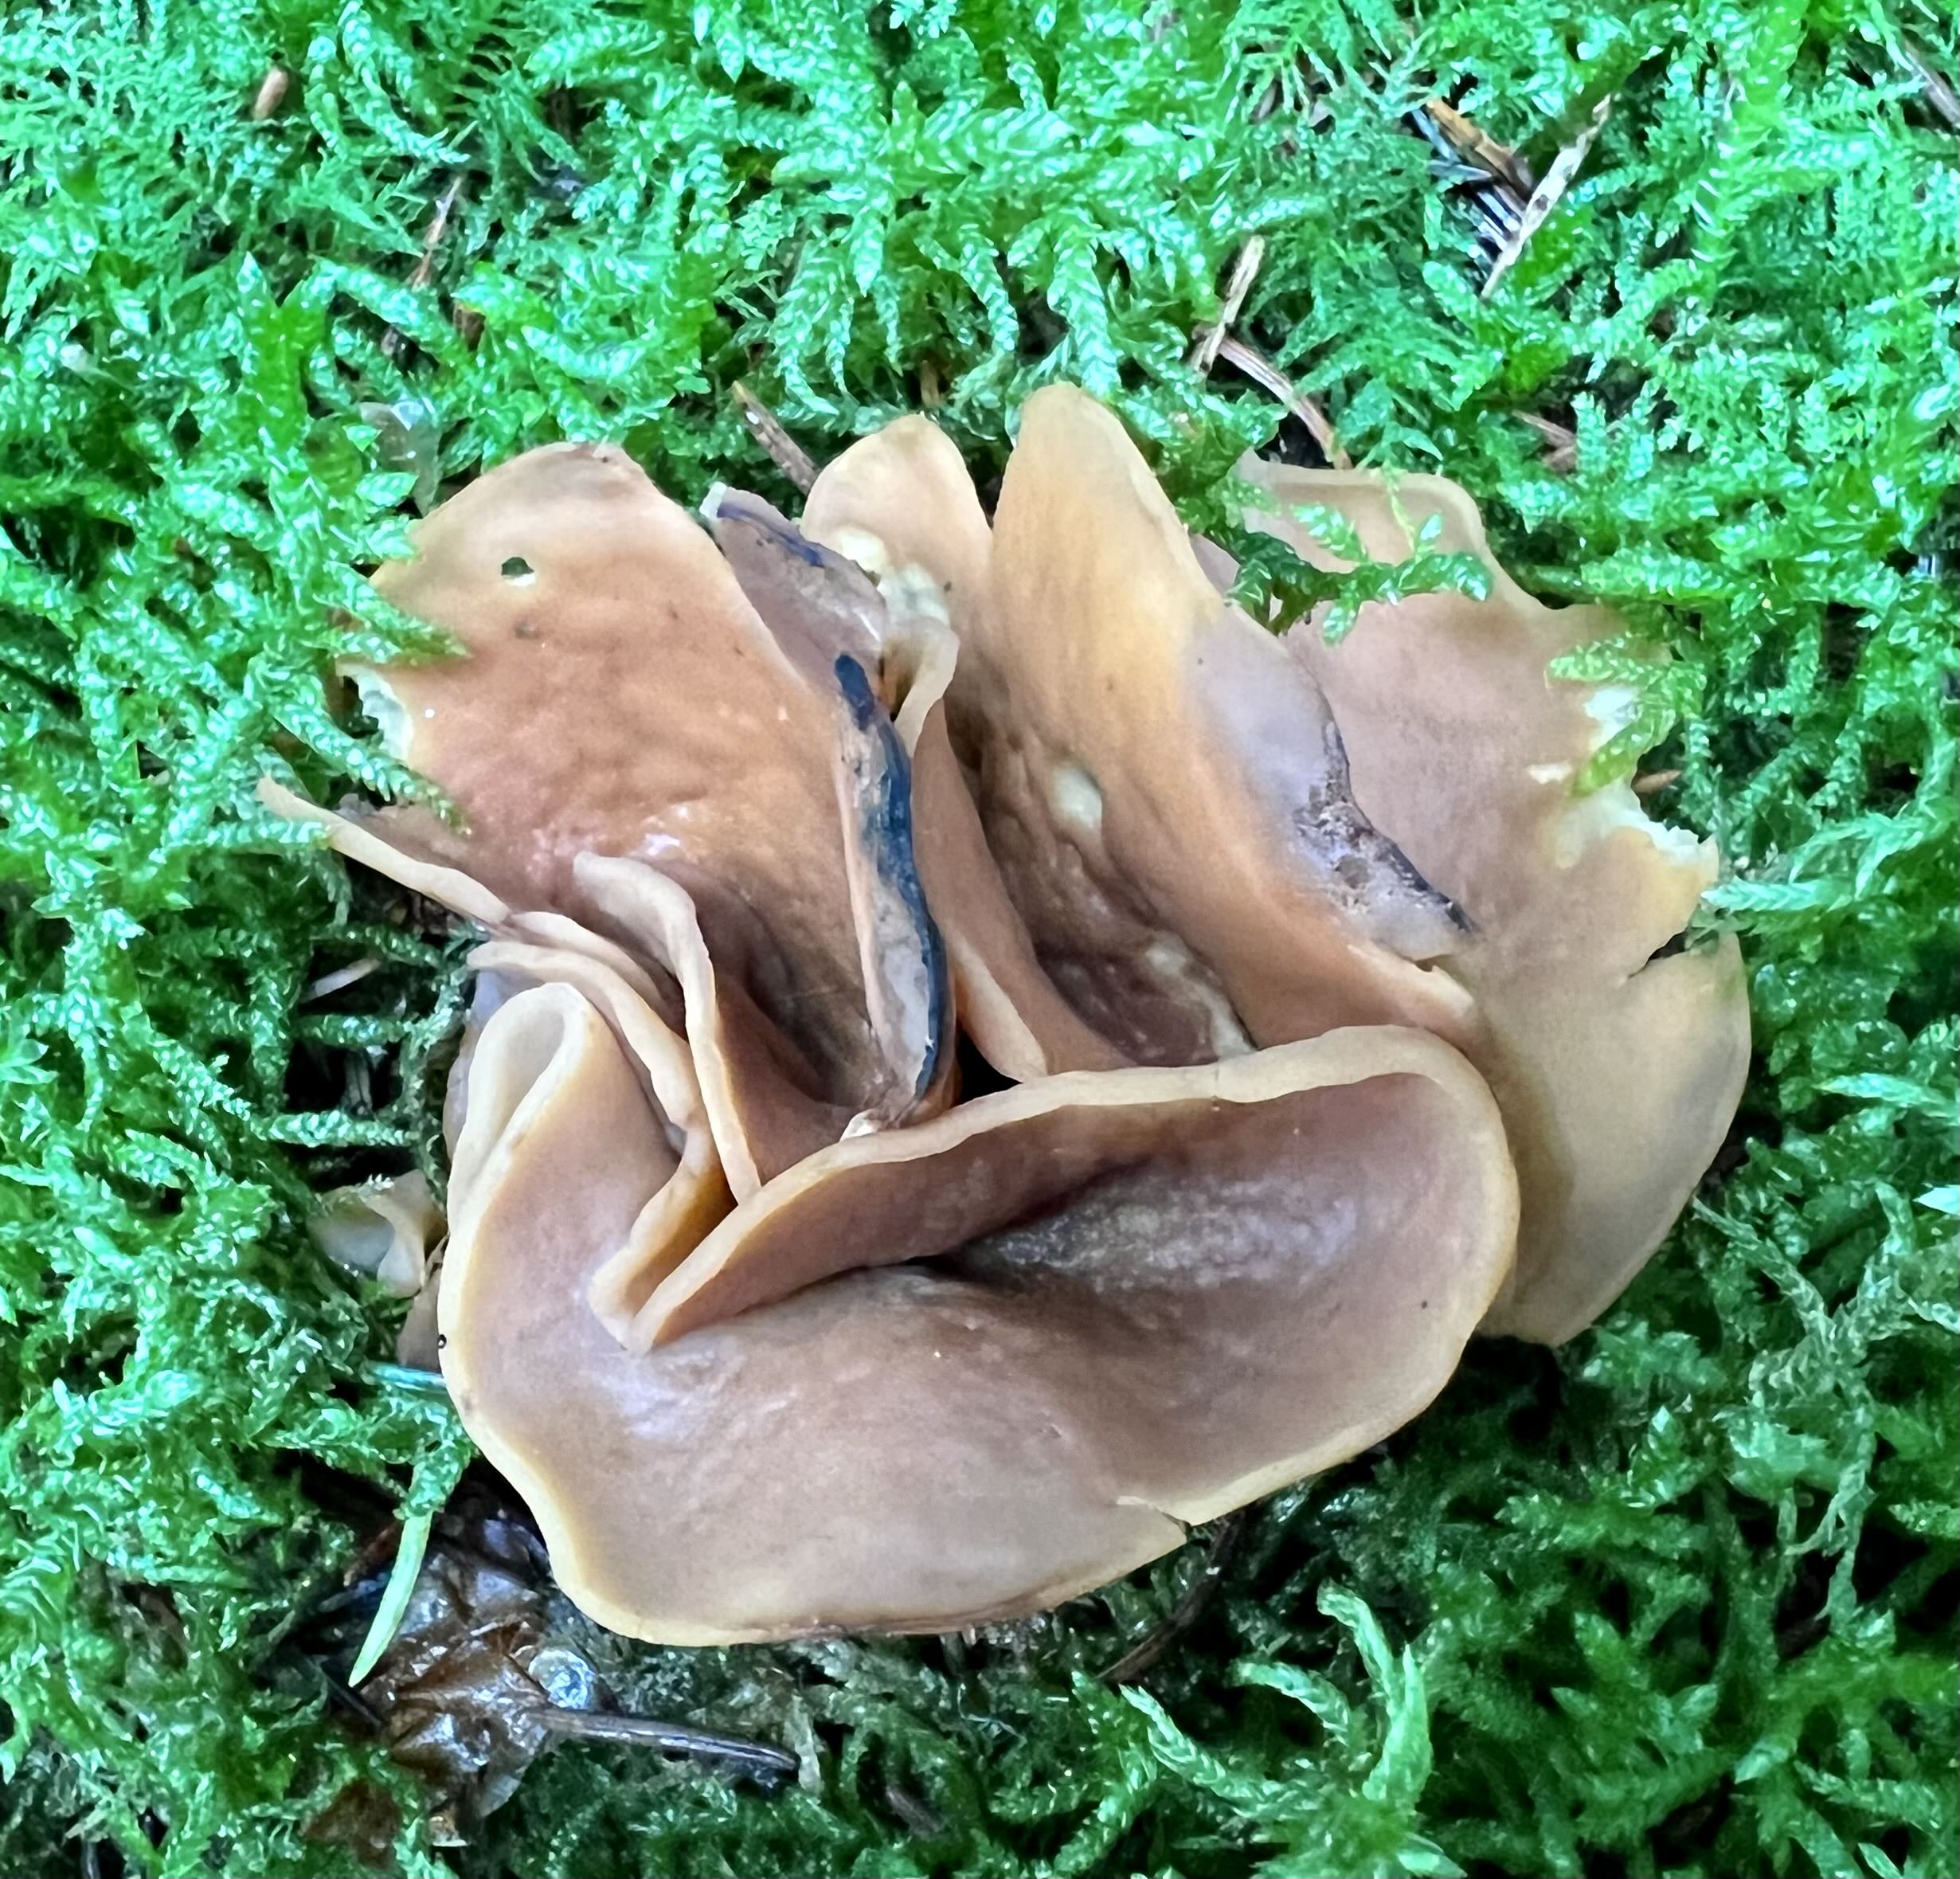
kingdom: Fungi
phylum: Ascomycota
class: Pezizomycetes
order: Pezizales
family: Otideaceae
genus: Otidea
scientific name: Otidea
